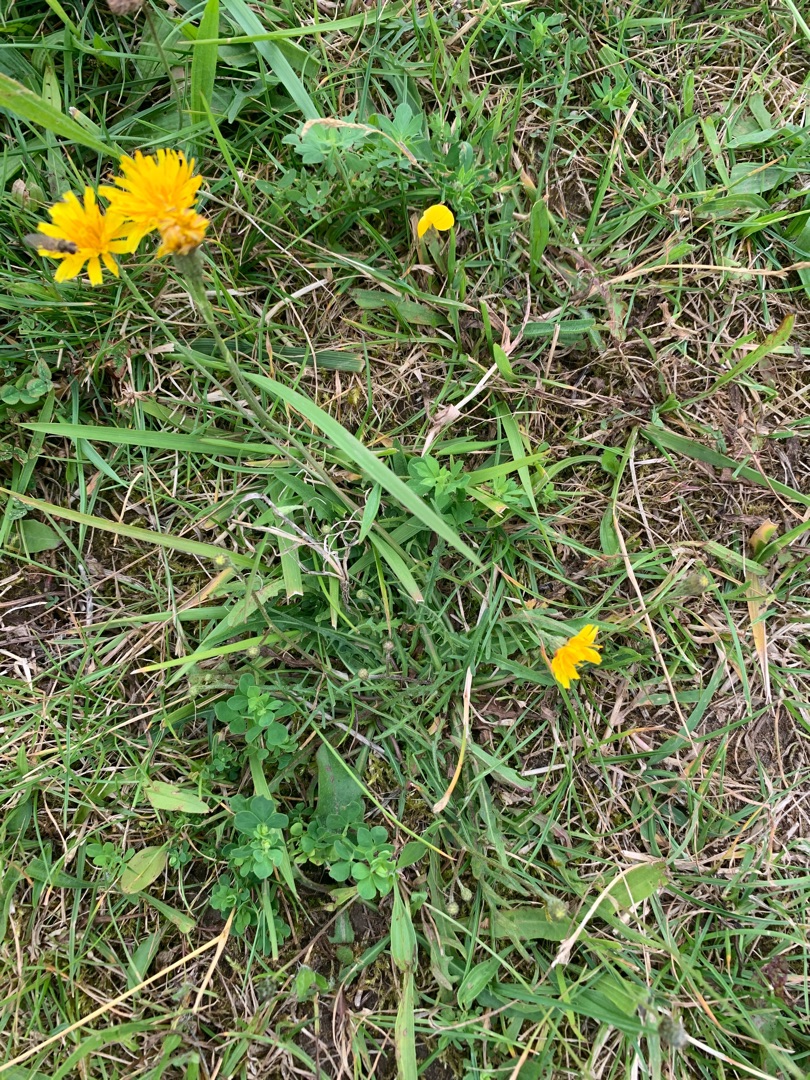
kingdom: Plantae
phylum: Tracheophyta
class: Magnoliopsida
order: Asterales
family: Asteraceae
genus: Scorzoneroides
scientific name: Scorzoneroides autumnalis
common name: Høst-borst
